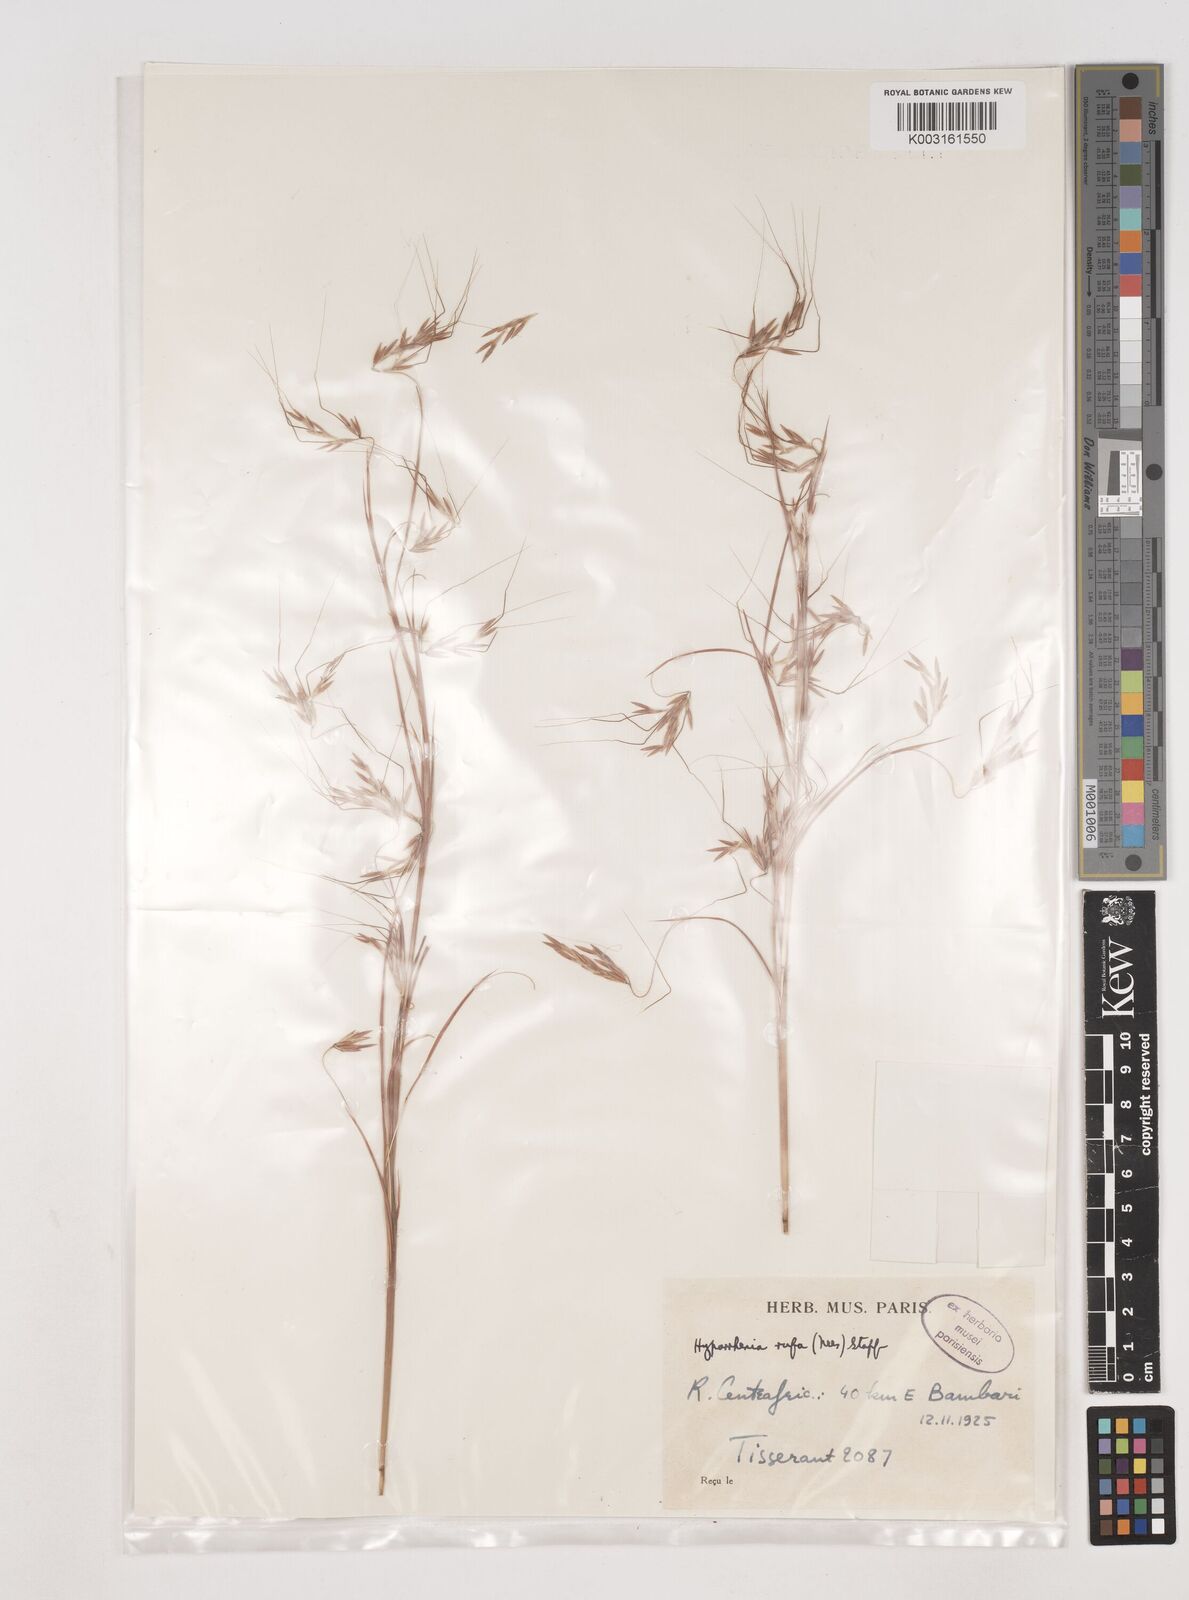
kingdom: Plantae
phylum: Tracheophyta
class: Liliopsida
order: Poales
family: Poaceae
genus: Hyparrhenia
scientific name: Hyparrhenia rufa
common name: Jaraguagrass
